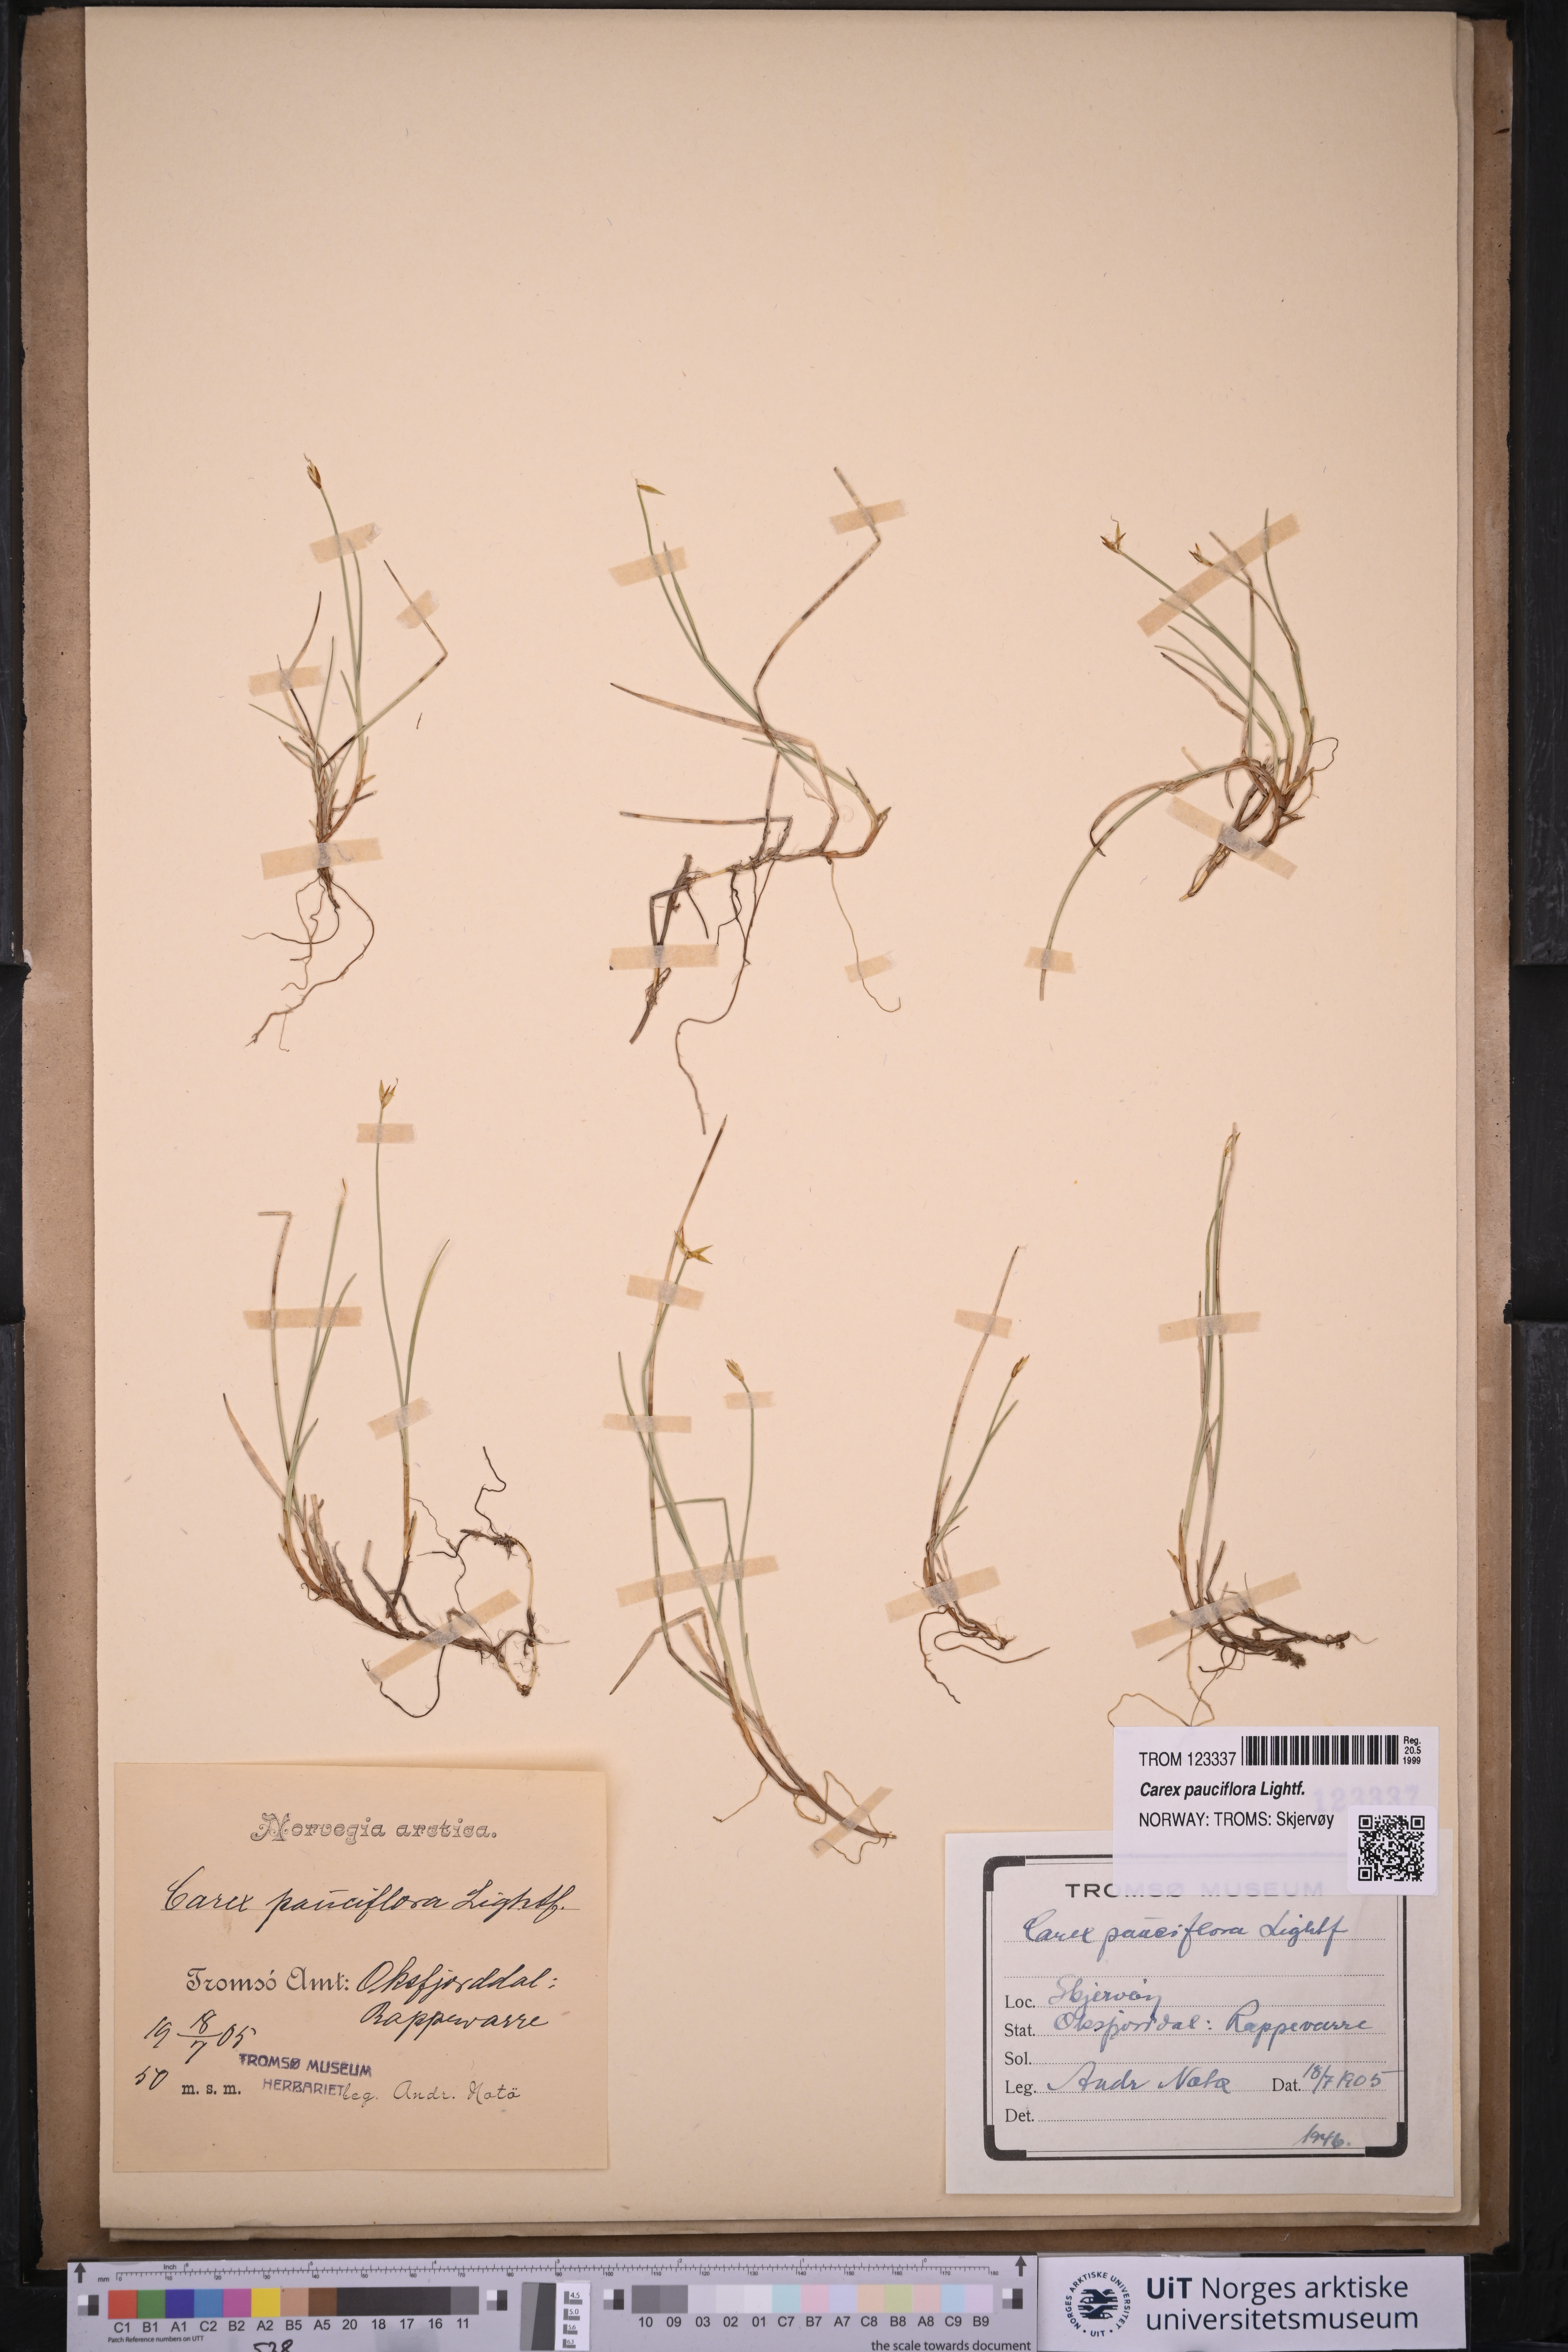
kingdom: Plantae
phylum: Tracheophyta
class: Liliopsida
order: Poales
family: Cyperaceae
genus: Carex
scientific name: Carex pauciflora
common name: Few-flowered sedge
